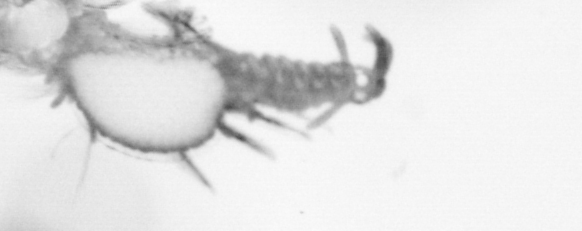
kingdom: Animalia
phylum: Annelida
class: Polychaeta
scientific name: Polychaeta
